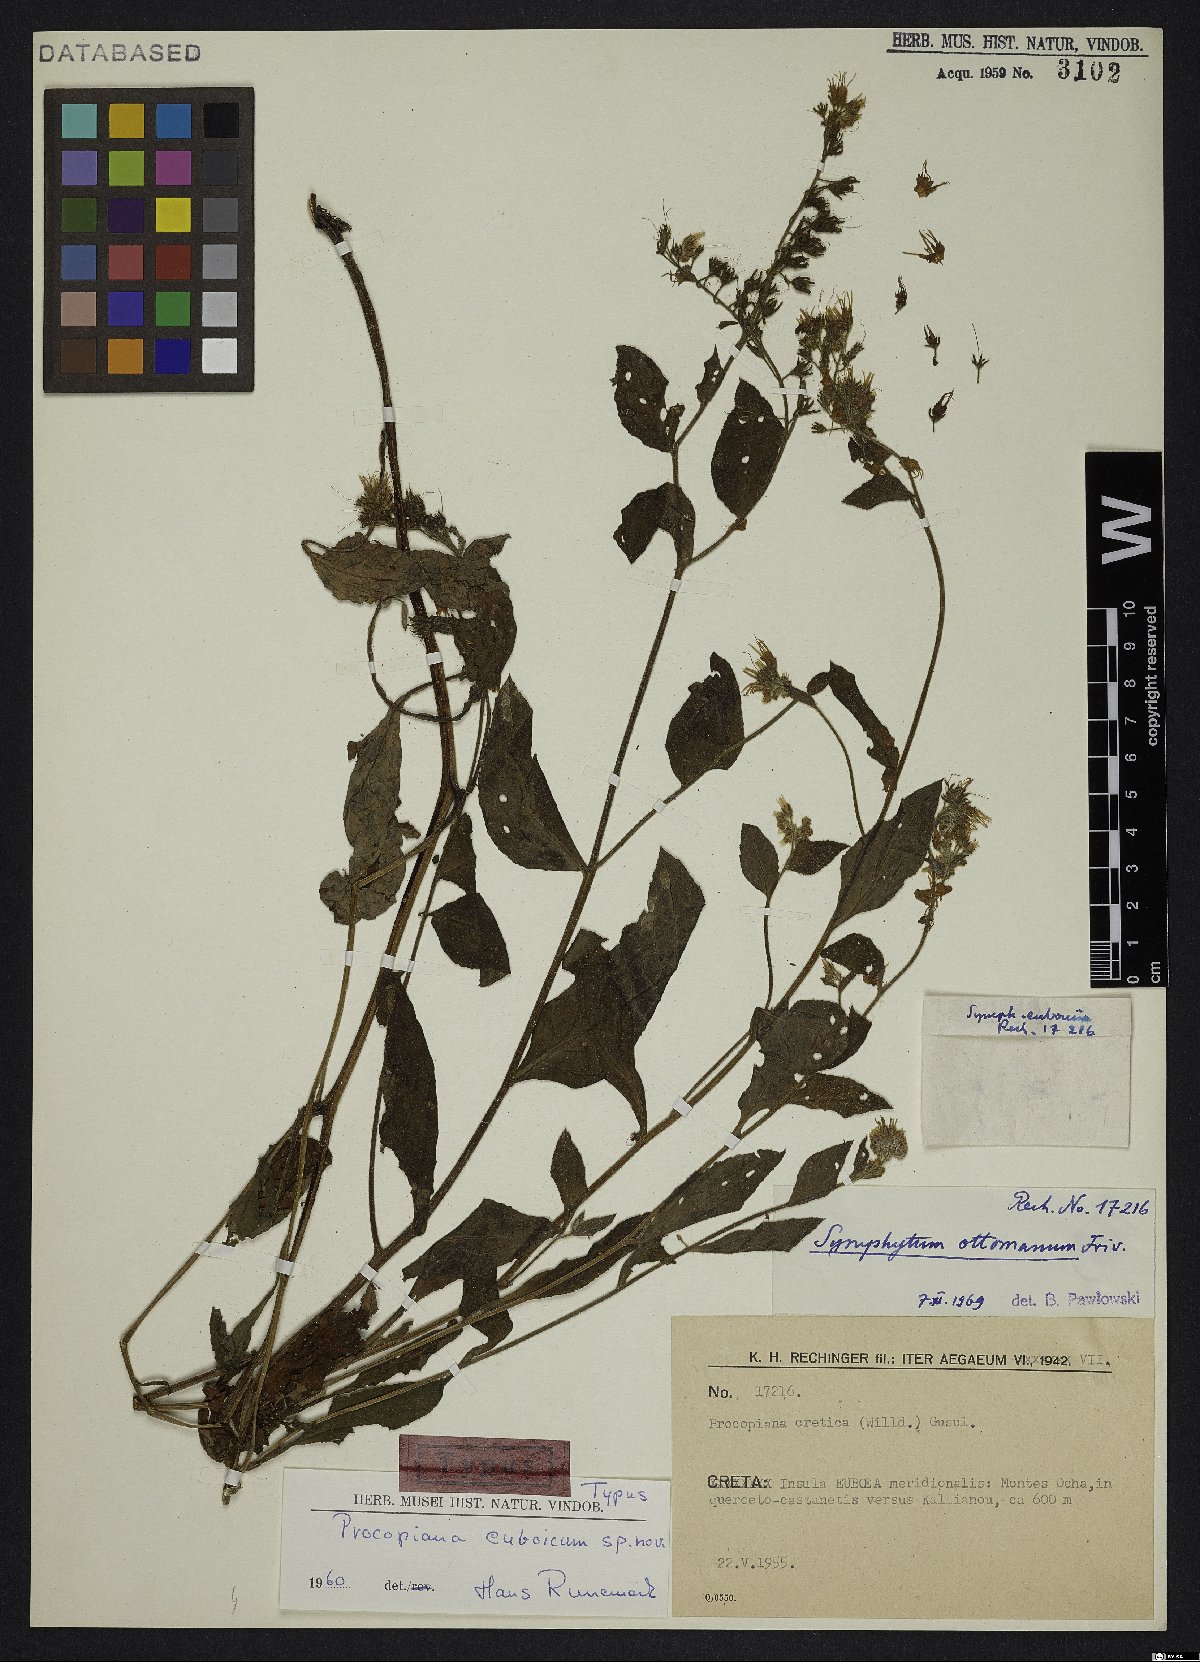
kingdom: Plantae
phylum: Tracheophyta
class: Magnoliopsida
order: Boraginales
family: Boraginaceae
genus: Symphytum
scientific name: Symphytum ottomanum
